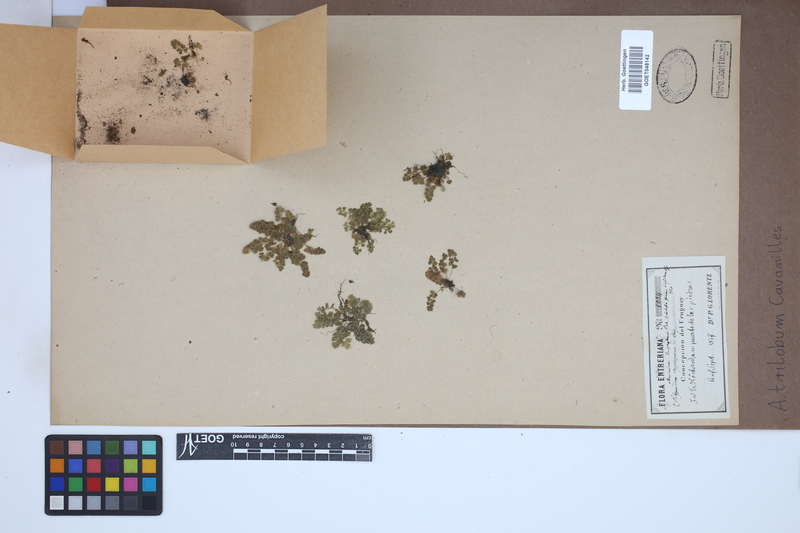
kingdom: Plantae
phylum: Tracheophyta
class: Polypodiopsida
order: Polypodiales
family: Aspleniaceae
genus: Asplenium
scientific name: Asplenium trilobum
